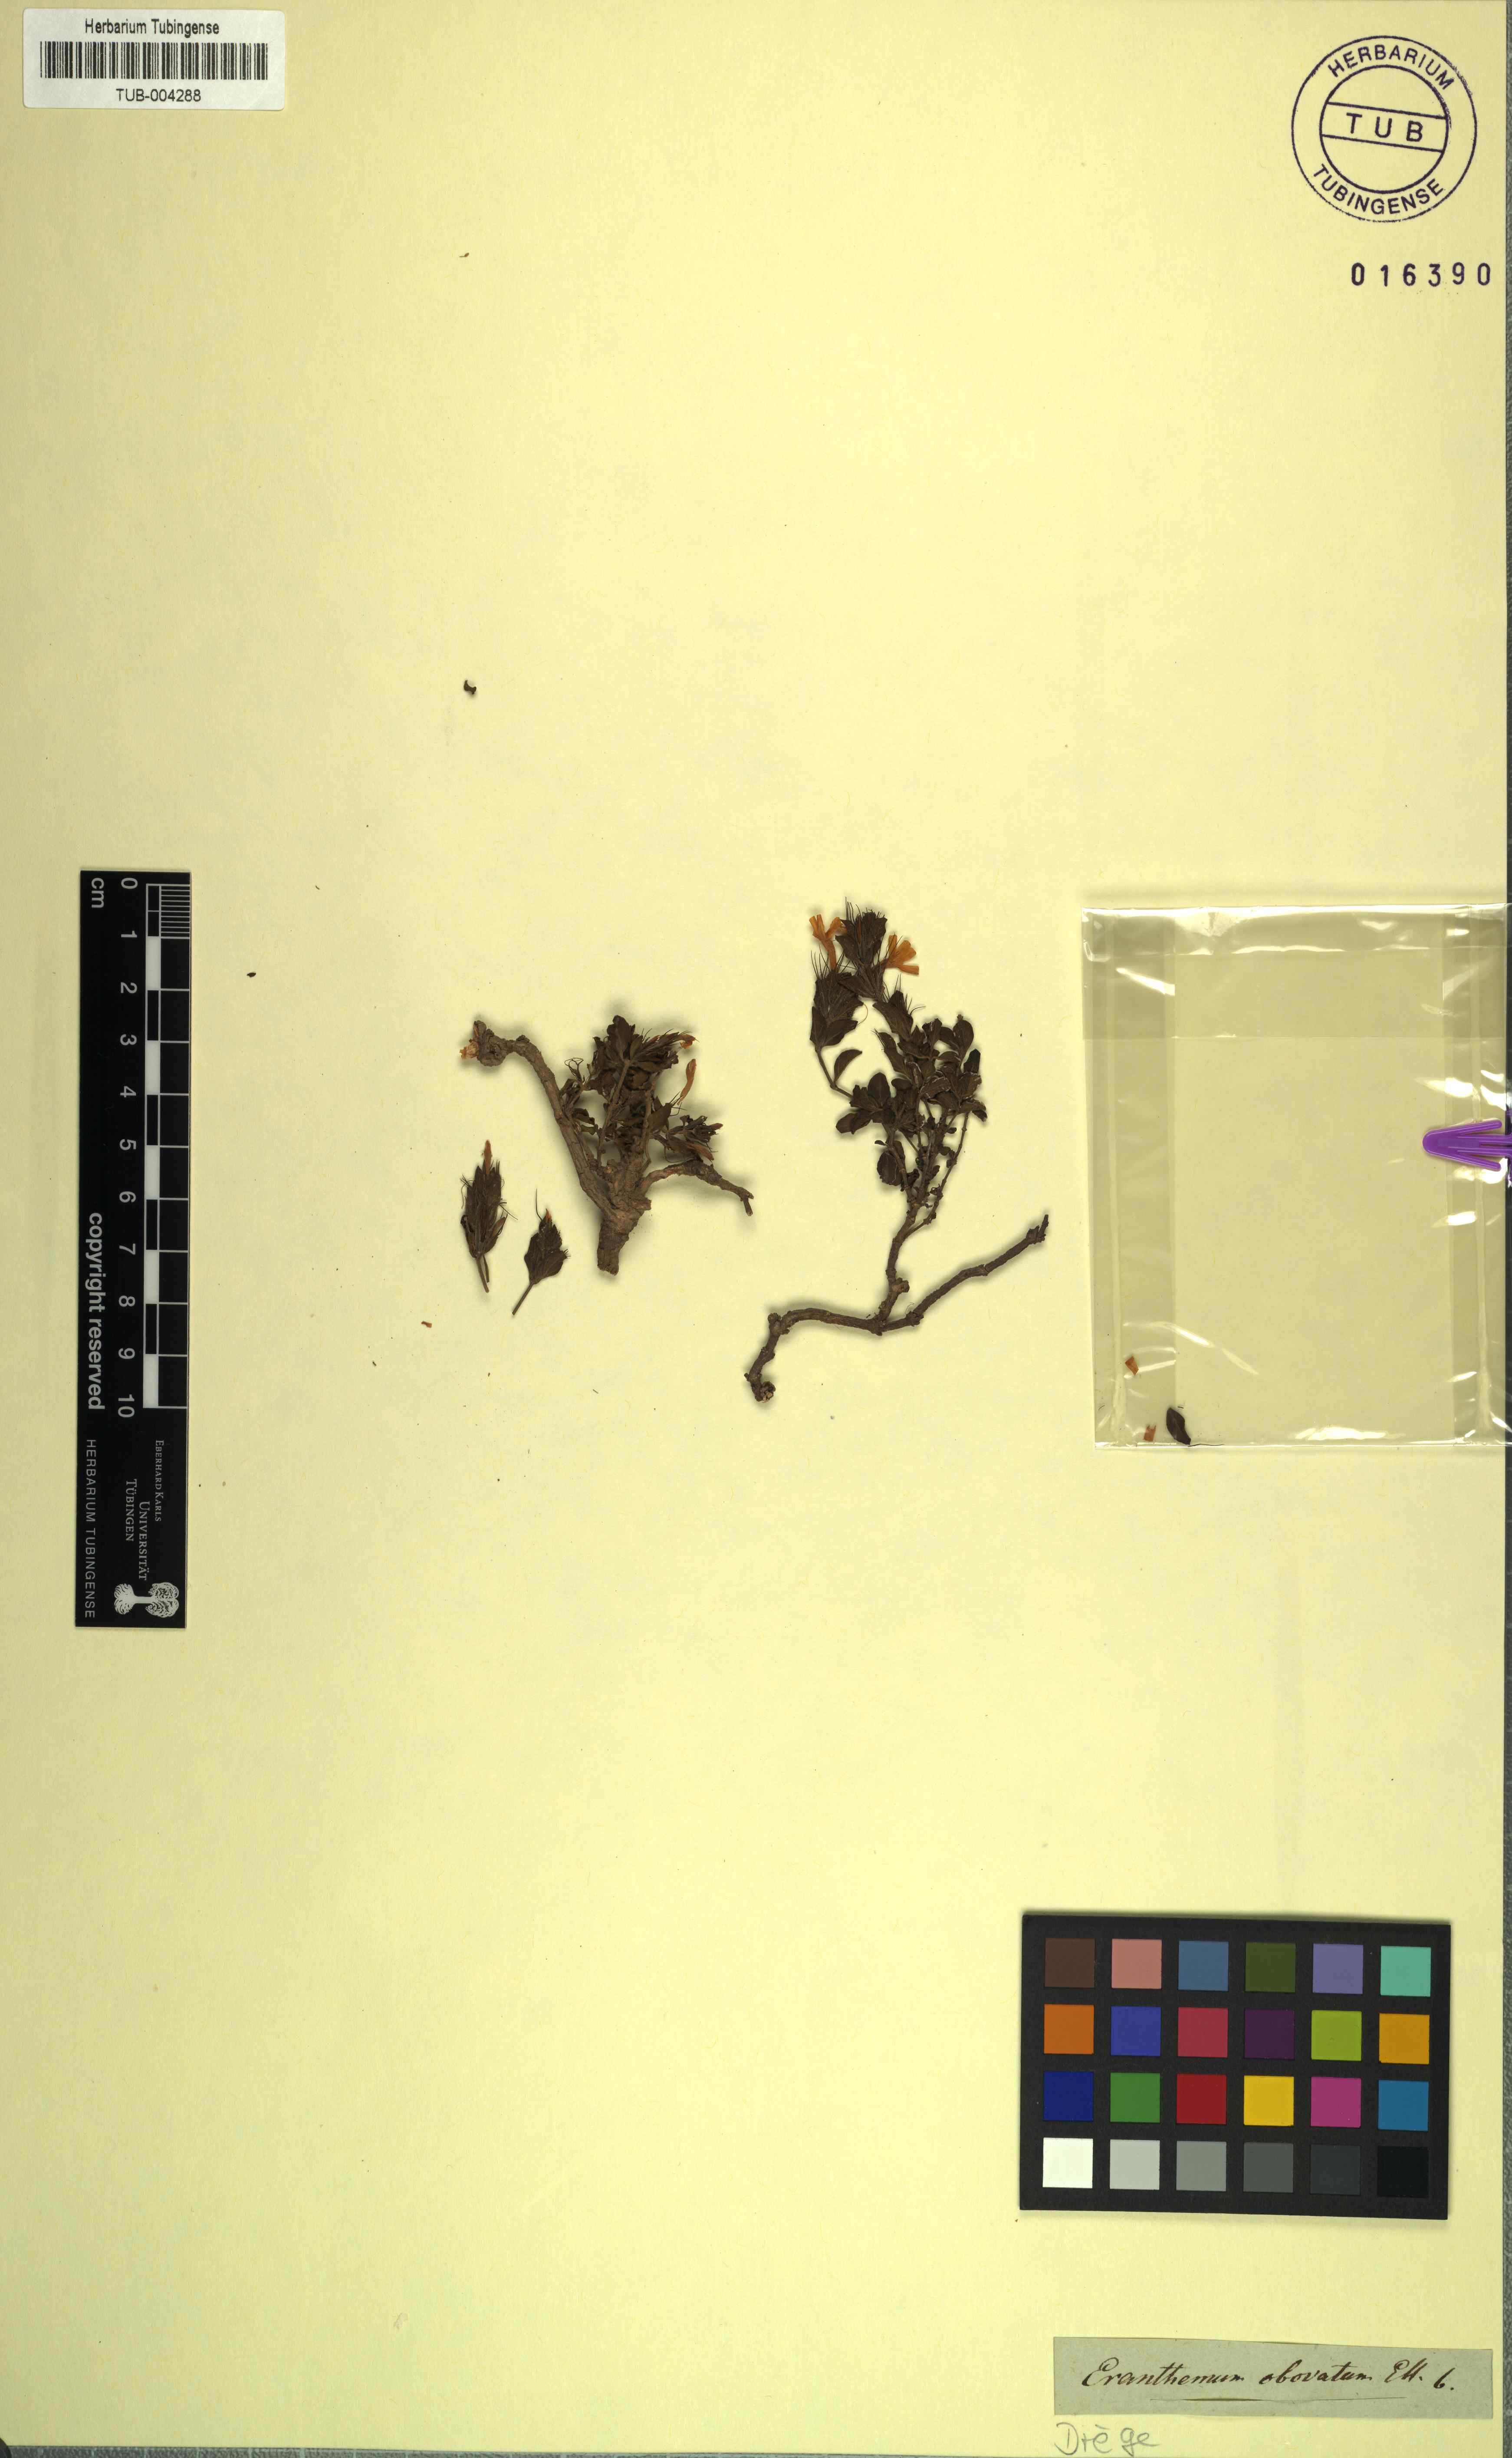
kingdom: Plantae
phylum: Tracheophyta
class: Magnoliopsida
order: Lamiales
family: Acanthaceae
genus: Dyschoriste
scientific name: Dyschoriste serpyllifolia
